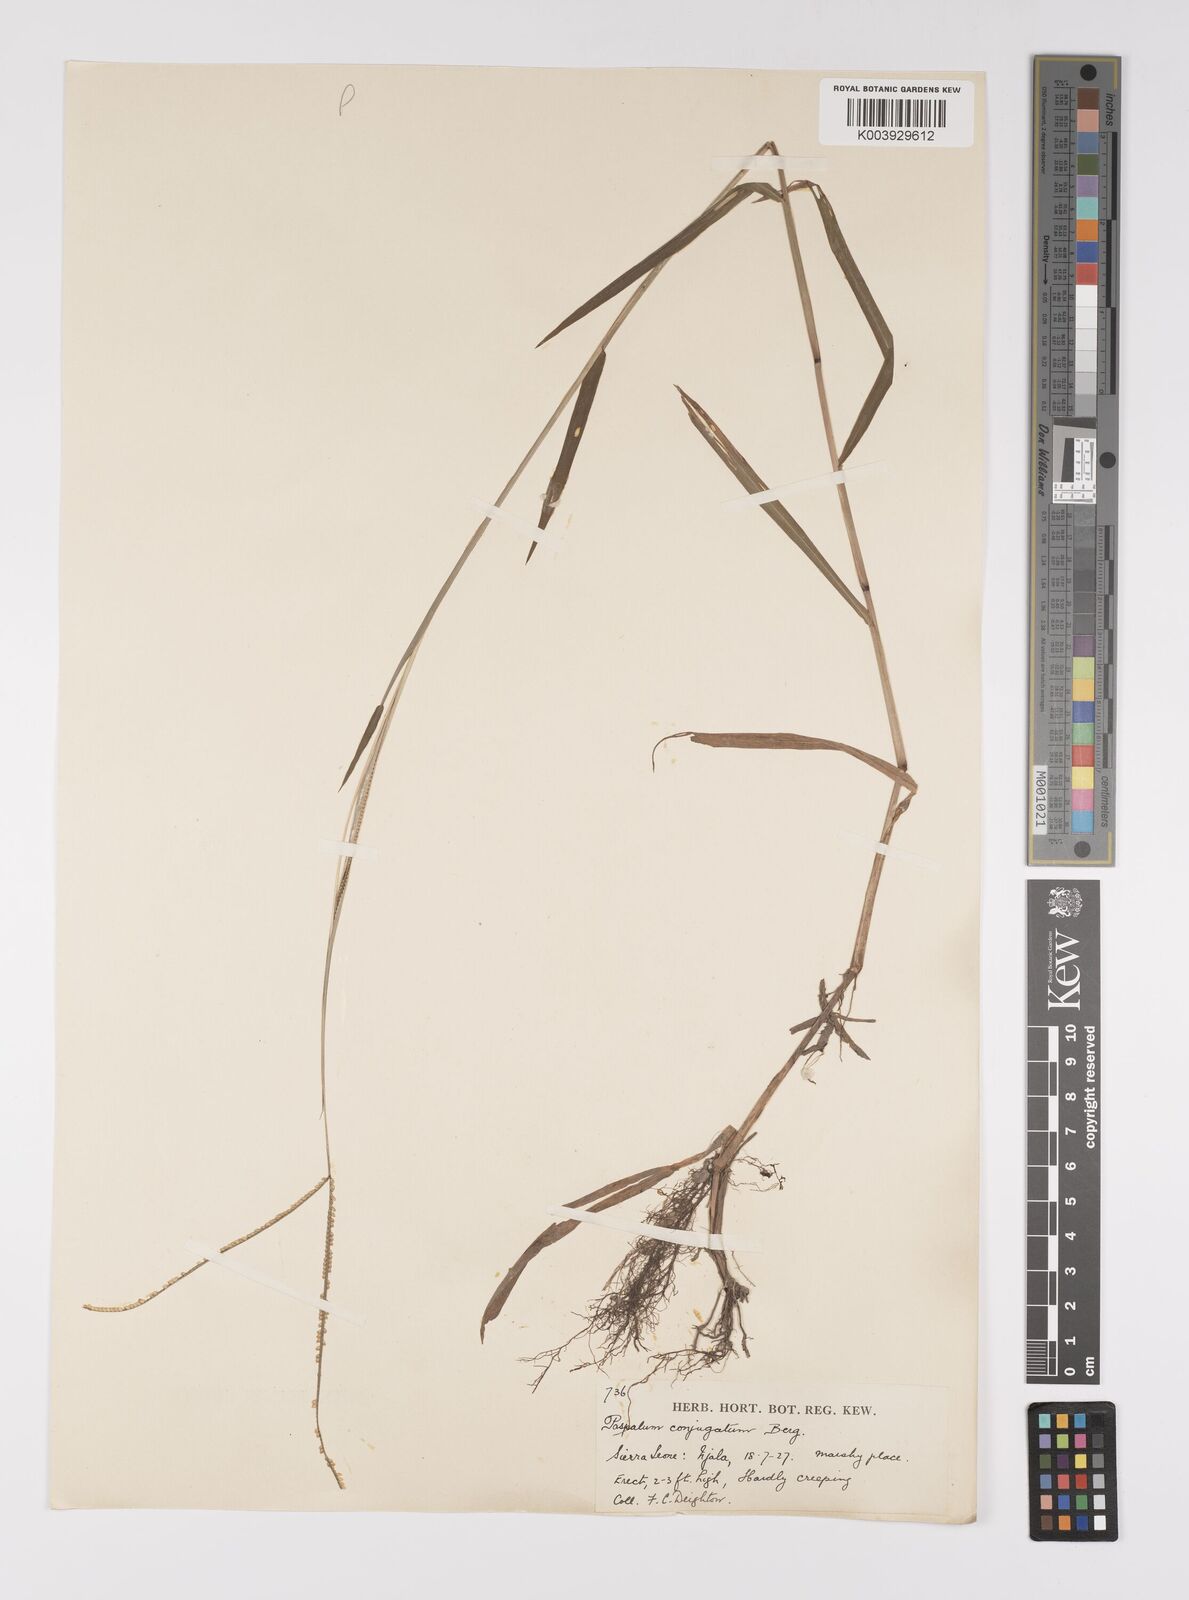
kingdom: Plantae
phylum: Tracheophyta
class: Liliopsida
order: Poales
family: Poaceae
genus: Paspalum
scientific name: Paspalum conjugatum
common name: Hilograss
